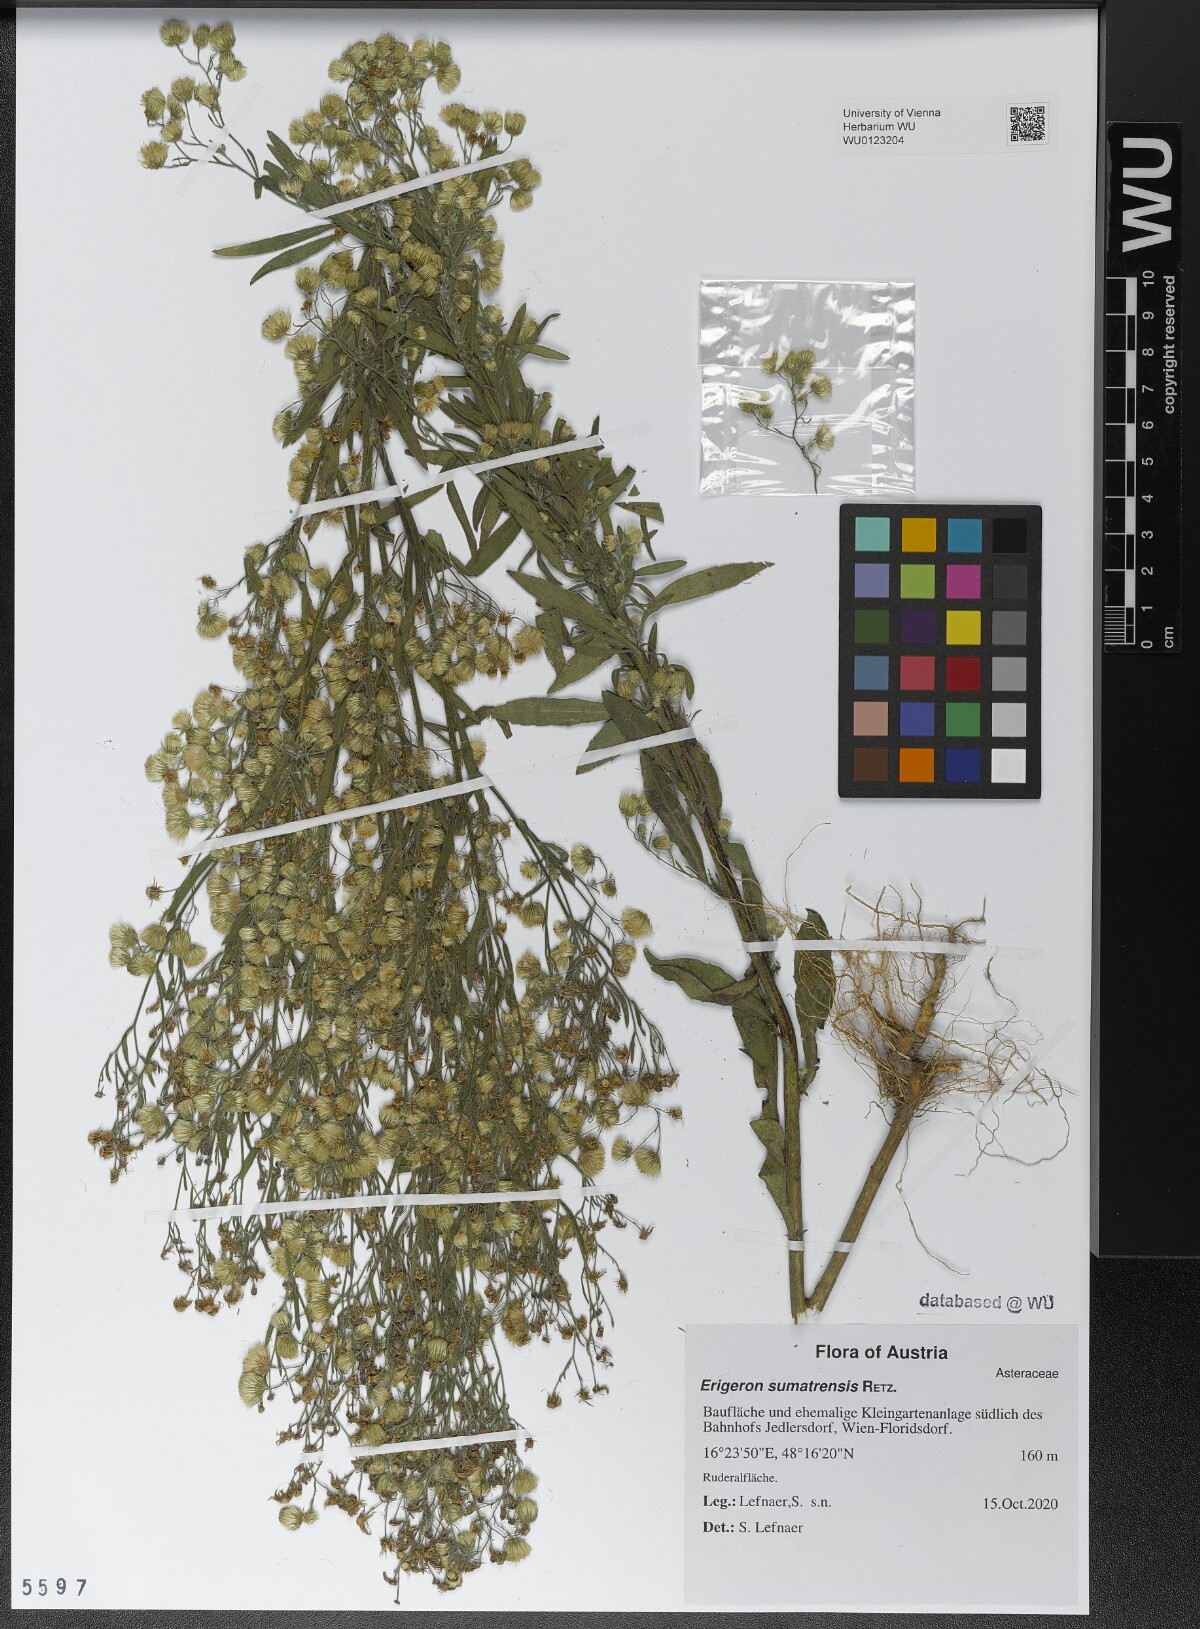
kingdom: Plantae
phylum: Tracheophyta
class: Magnoliopsida
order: Asterales
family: Asteraceae
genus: Erigeron
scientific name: Erigeron sumatrensis
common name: Daisy
